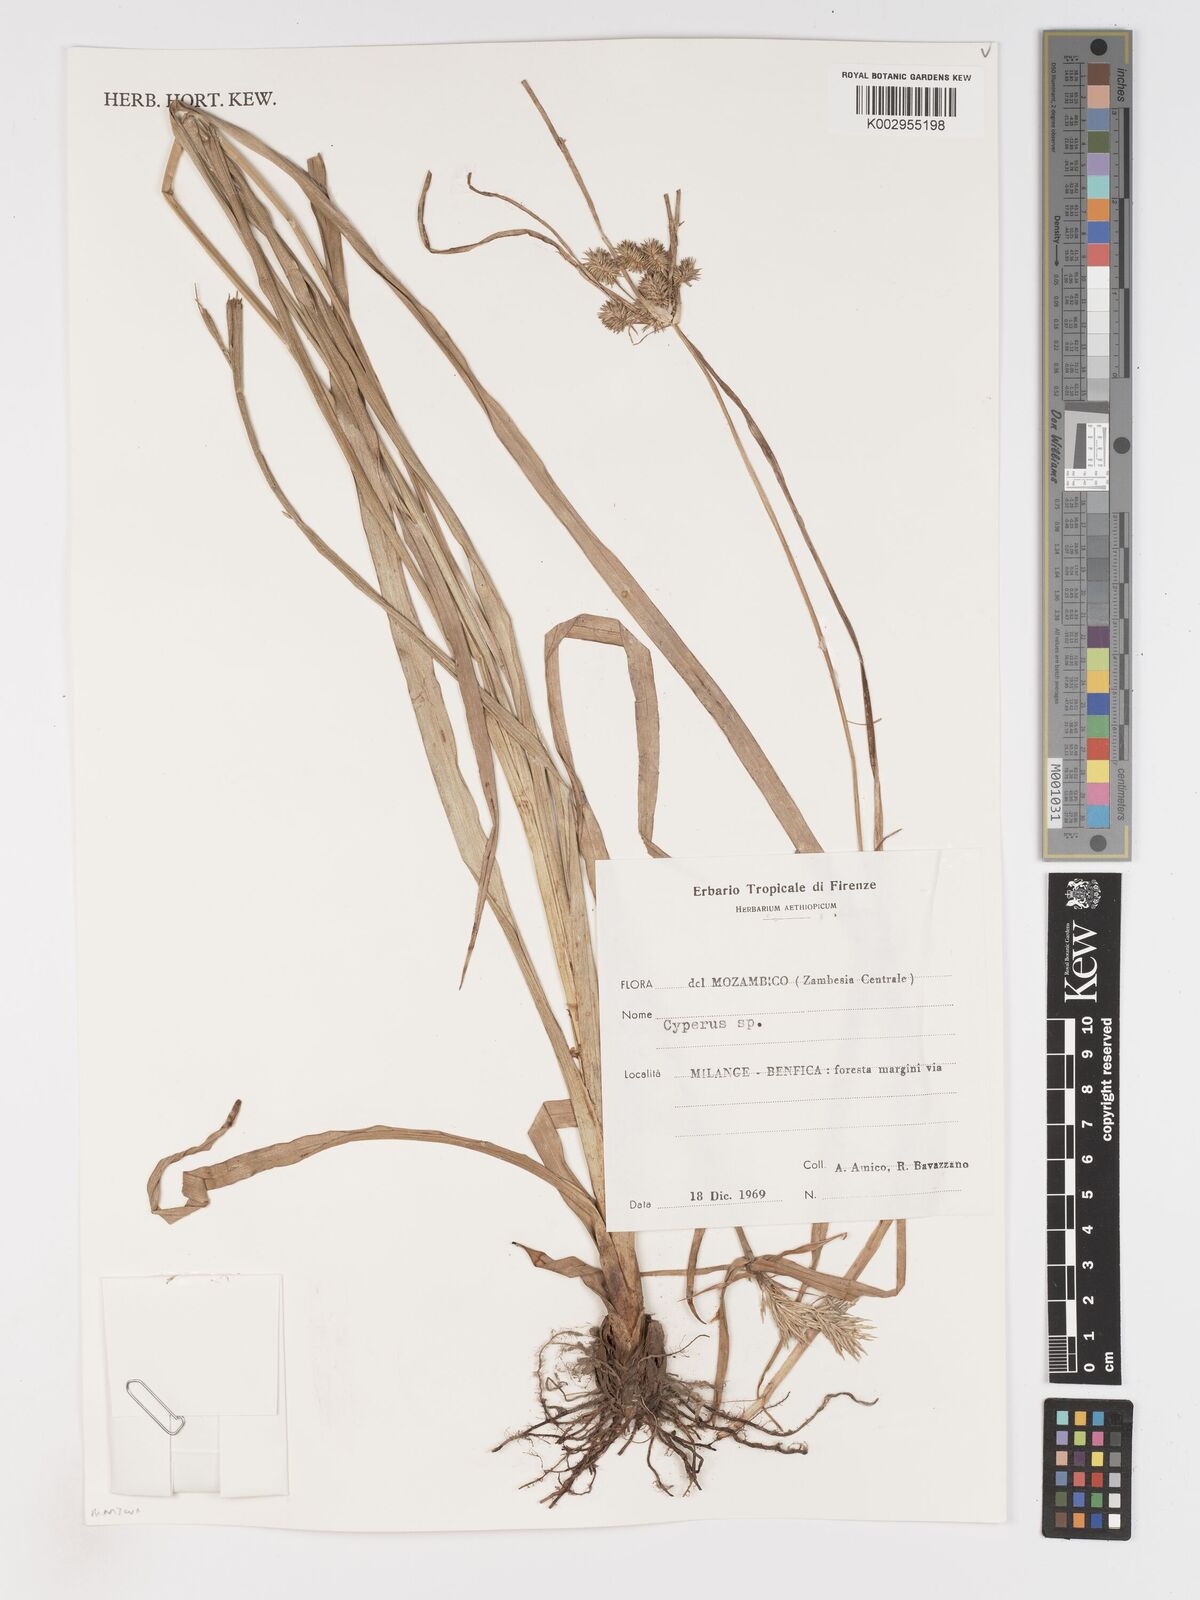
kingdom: Plantae
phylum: Tracheophyta
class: Liliopsida
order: Poales
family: Cyperaceae
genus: Cyperus
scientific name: Cyperus
